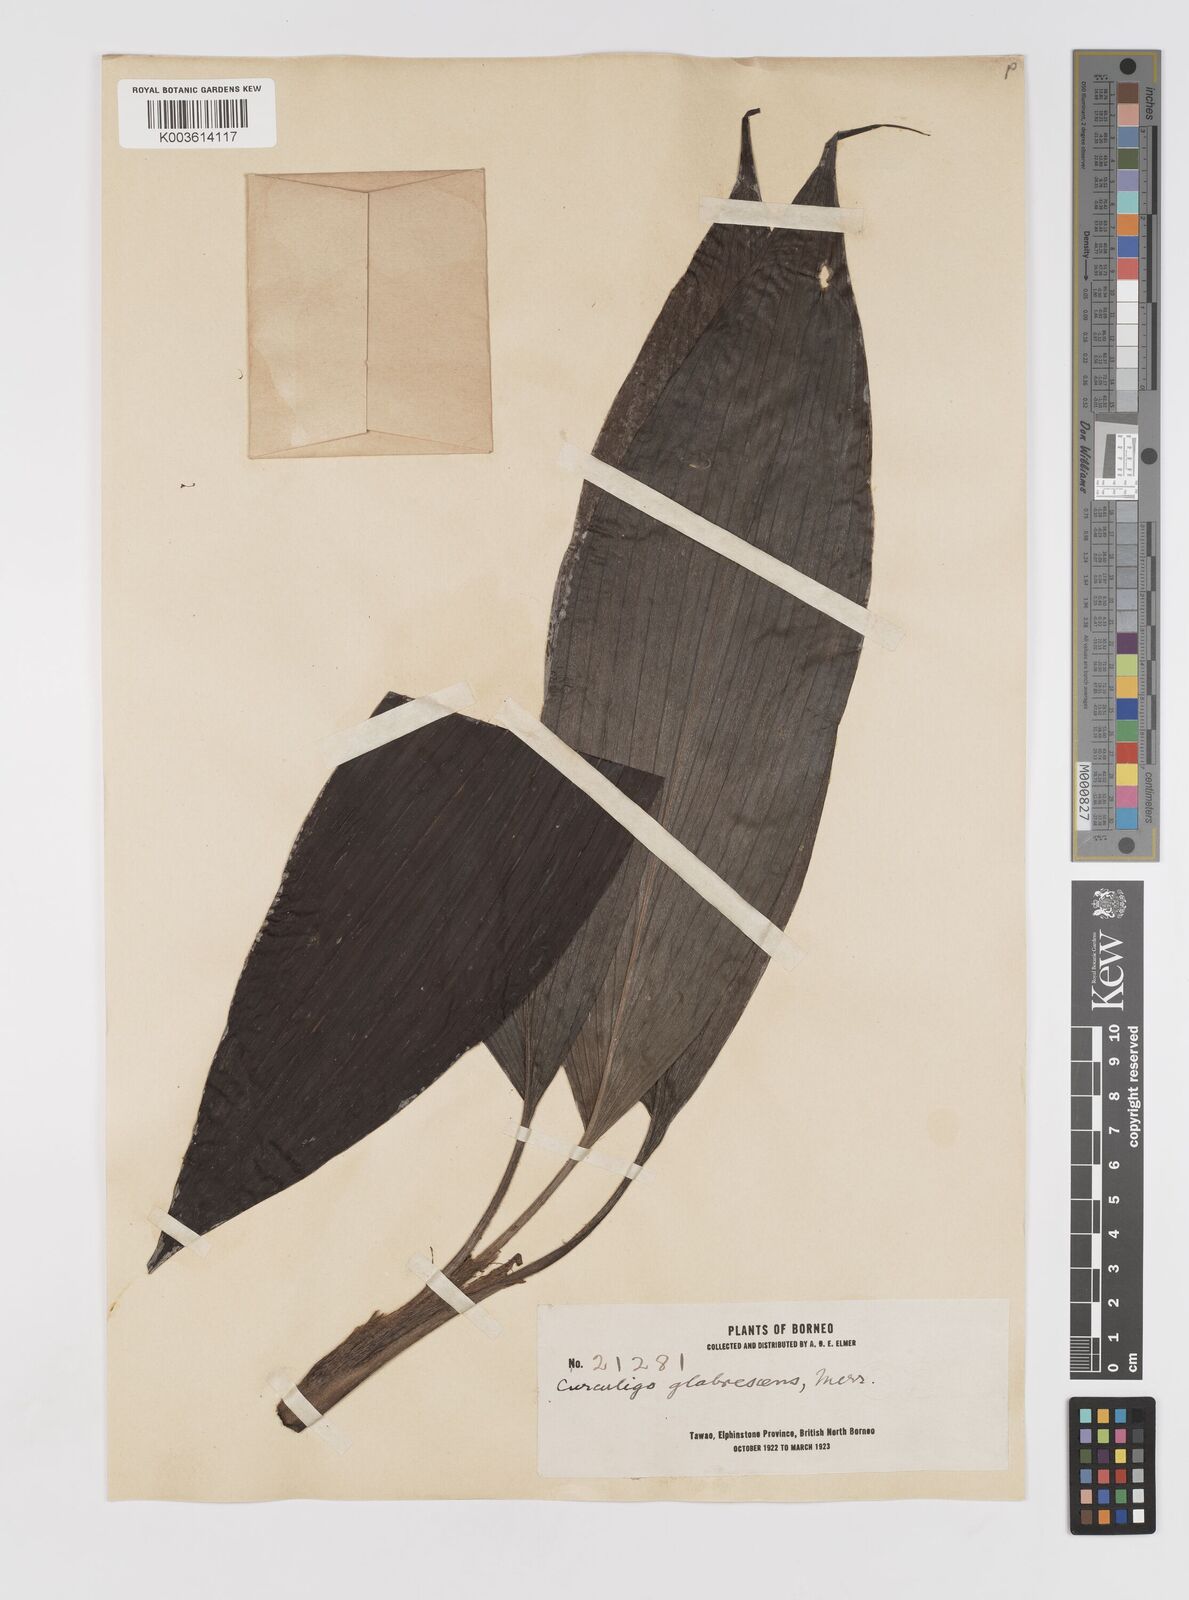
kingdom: Plantae
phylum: Tracheophyta
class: Liliopsida
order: Asparagales
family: Hypoxidaceae
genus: Curculigo
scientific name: Curculigo latifolia
